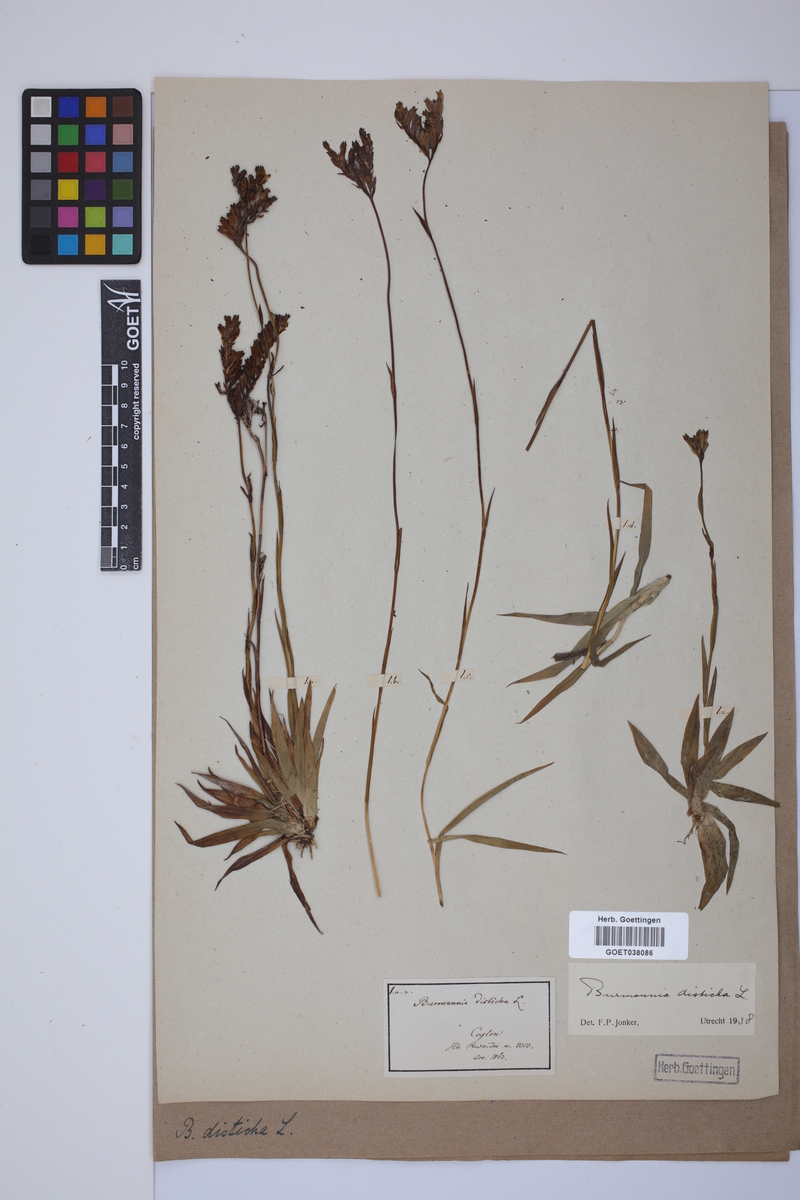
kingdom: Plantae
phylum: Tracheophyta
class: Liliopsida
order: Dioscoreales
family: Burmanniaceae
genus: Burmannia
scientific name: Burmannia disticha
